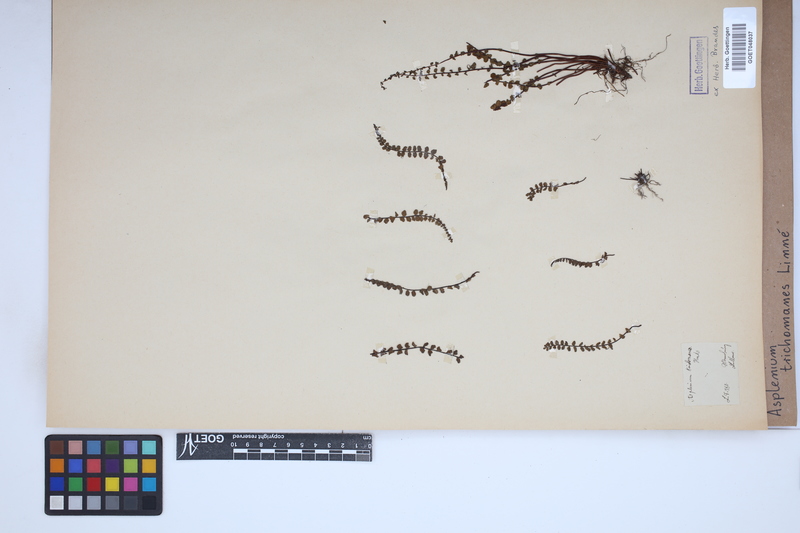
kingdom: Plantae
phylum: Tracheophyta
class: Polypodiopsida
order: Polypodiales
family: Aspleniaceae
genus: Asplenium
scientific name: Asplenium trichomanes
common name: Maidenhair spleenwort
